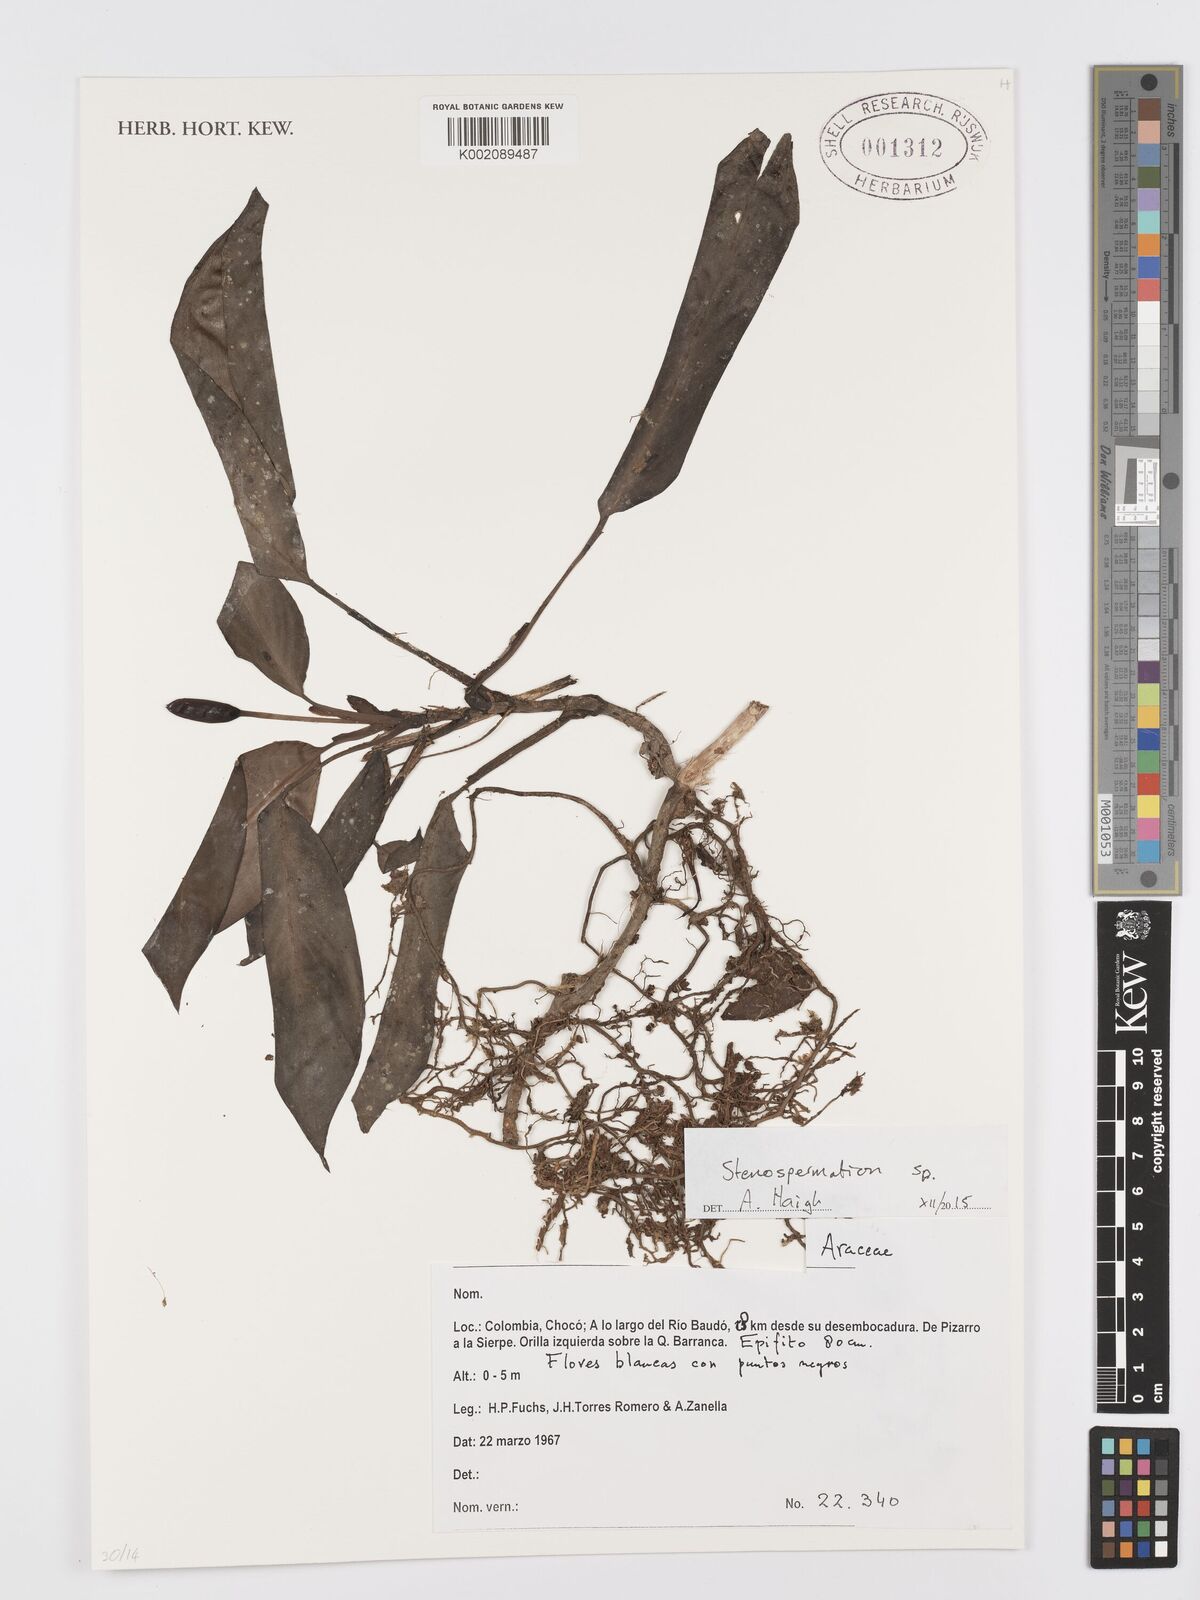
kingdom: Plantae
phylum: Tracheophyta
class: Liliopsida
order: Alismatales
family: Araceae
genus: Stenospermation
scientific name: Stenospermation
